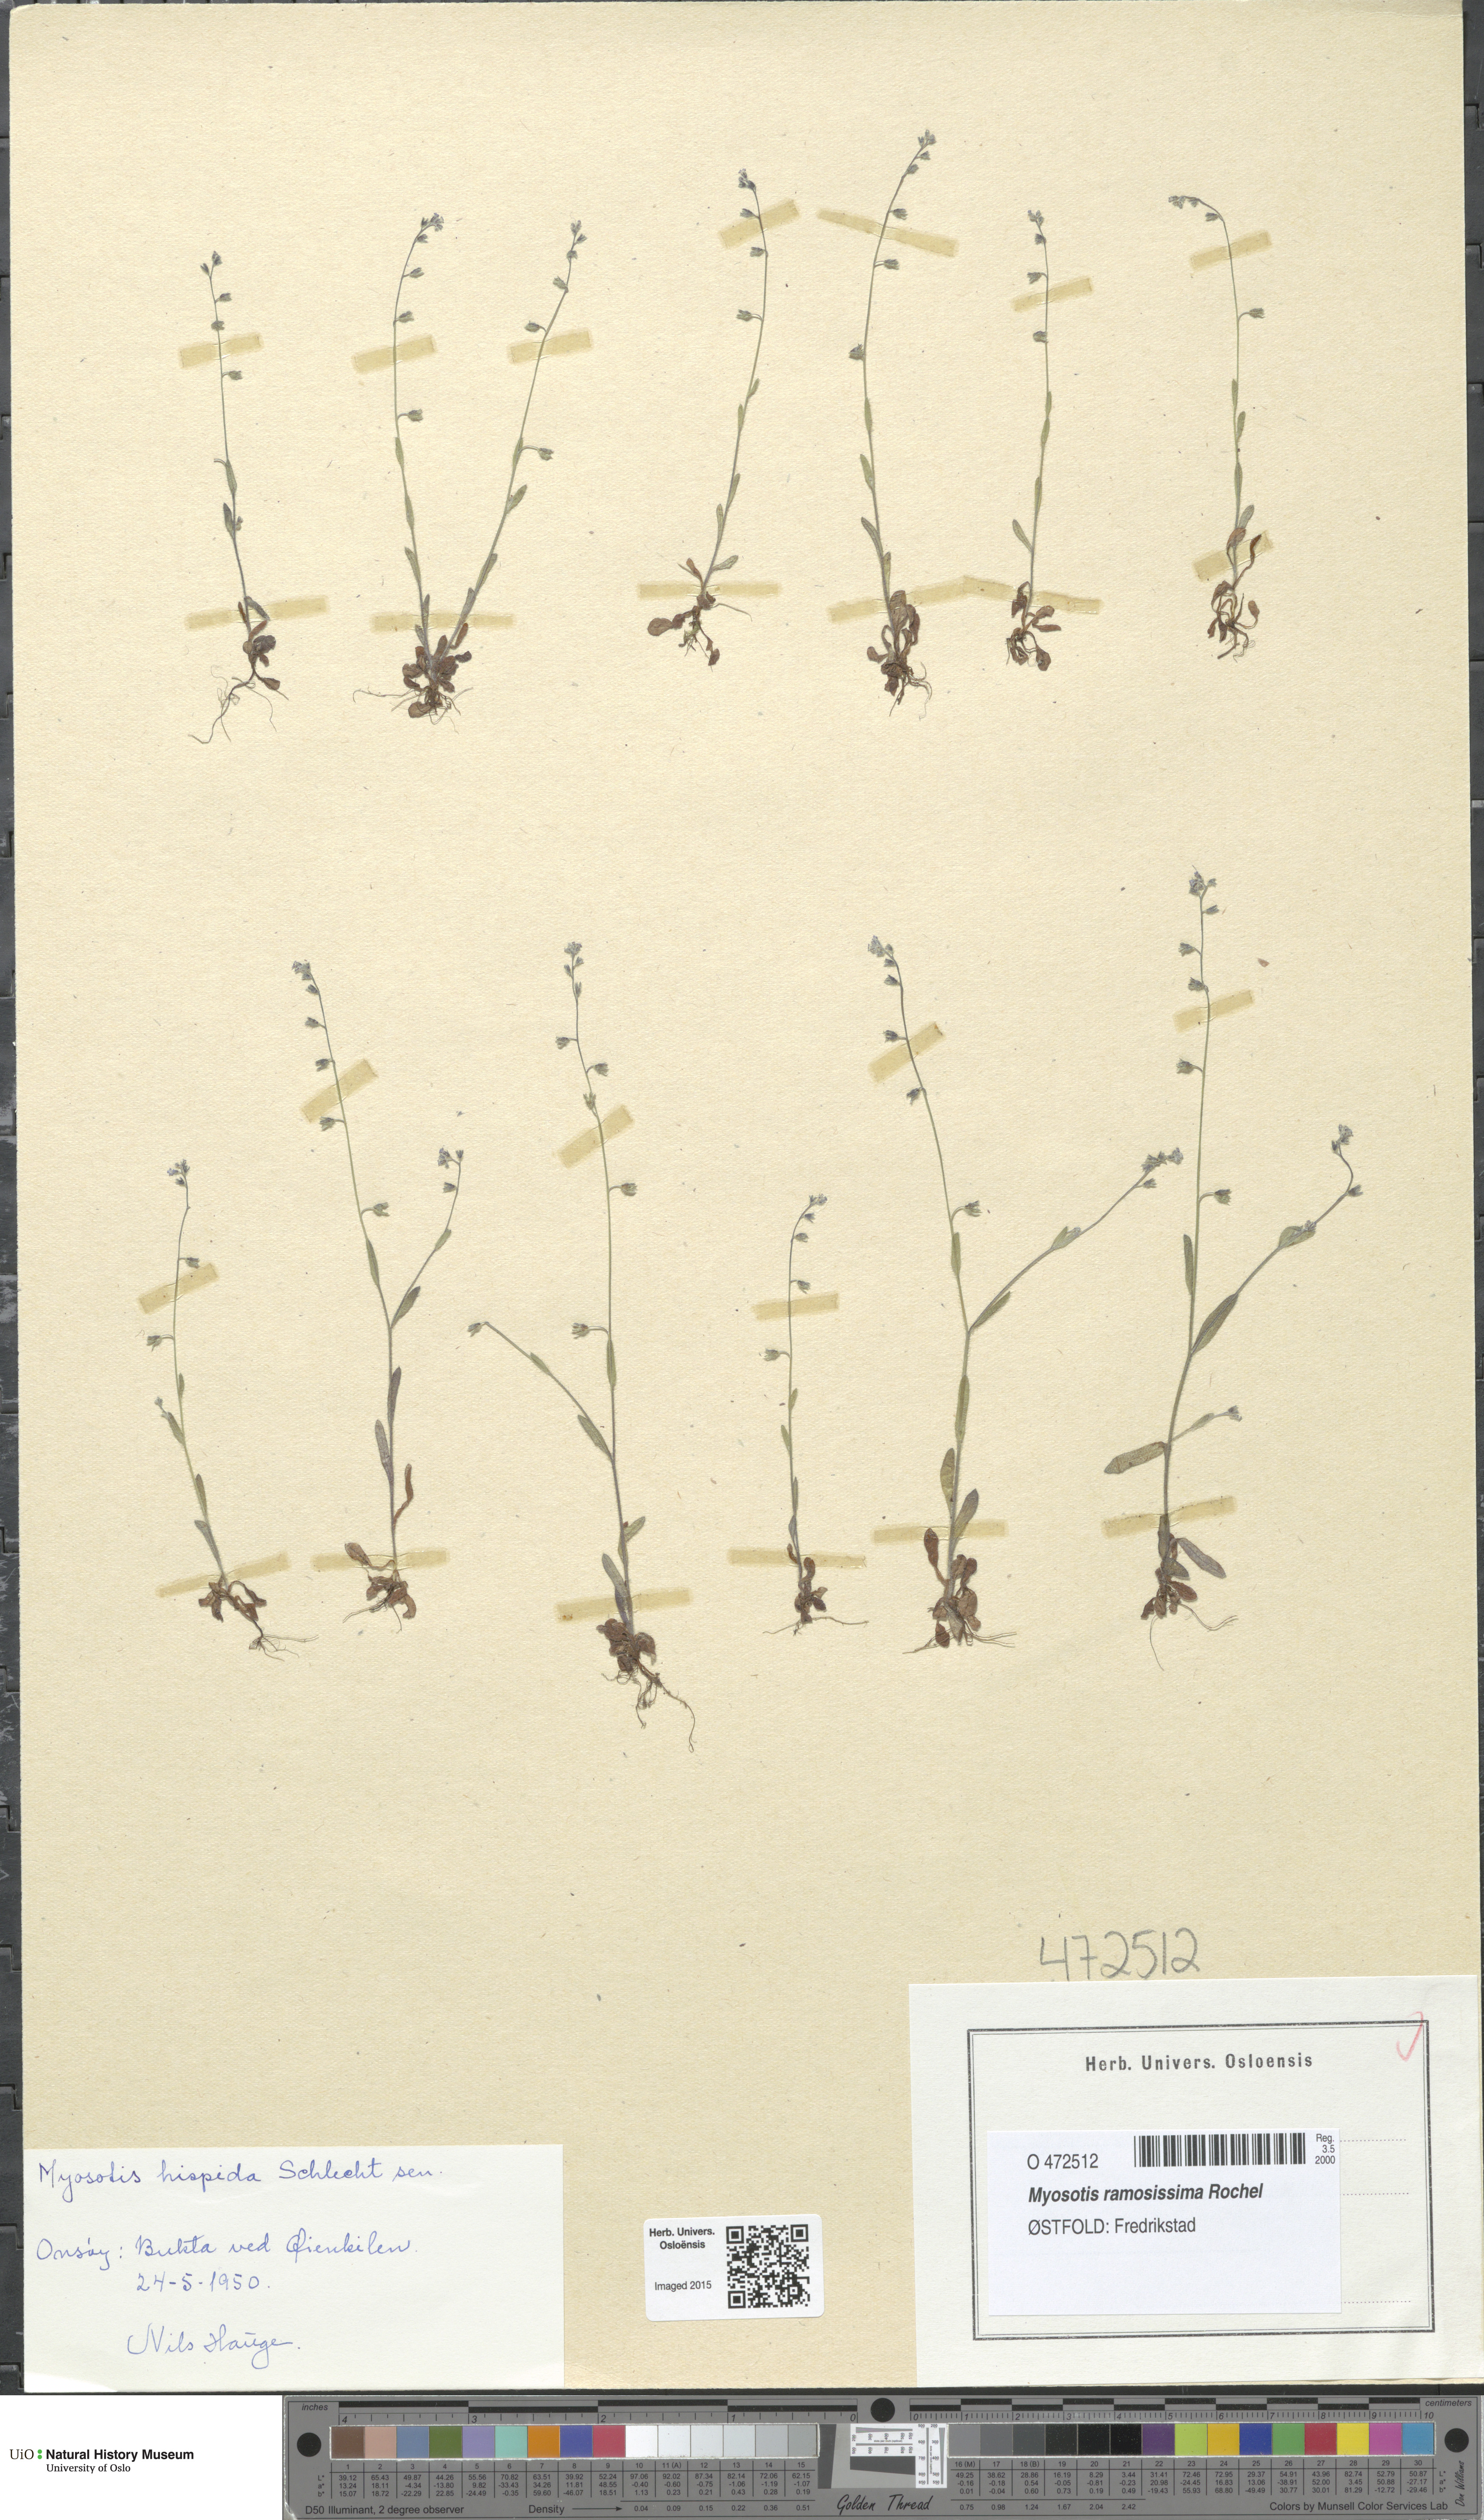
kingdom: Plantae
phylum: Tracheophyta
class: Magnoliopsida
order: Boraginales
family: Boraginaceae
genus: Myosotis
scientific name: Myosotis ramosissima
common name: Early forget-me-not
